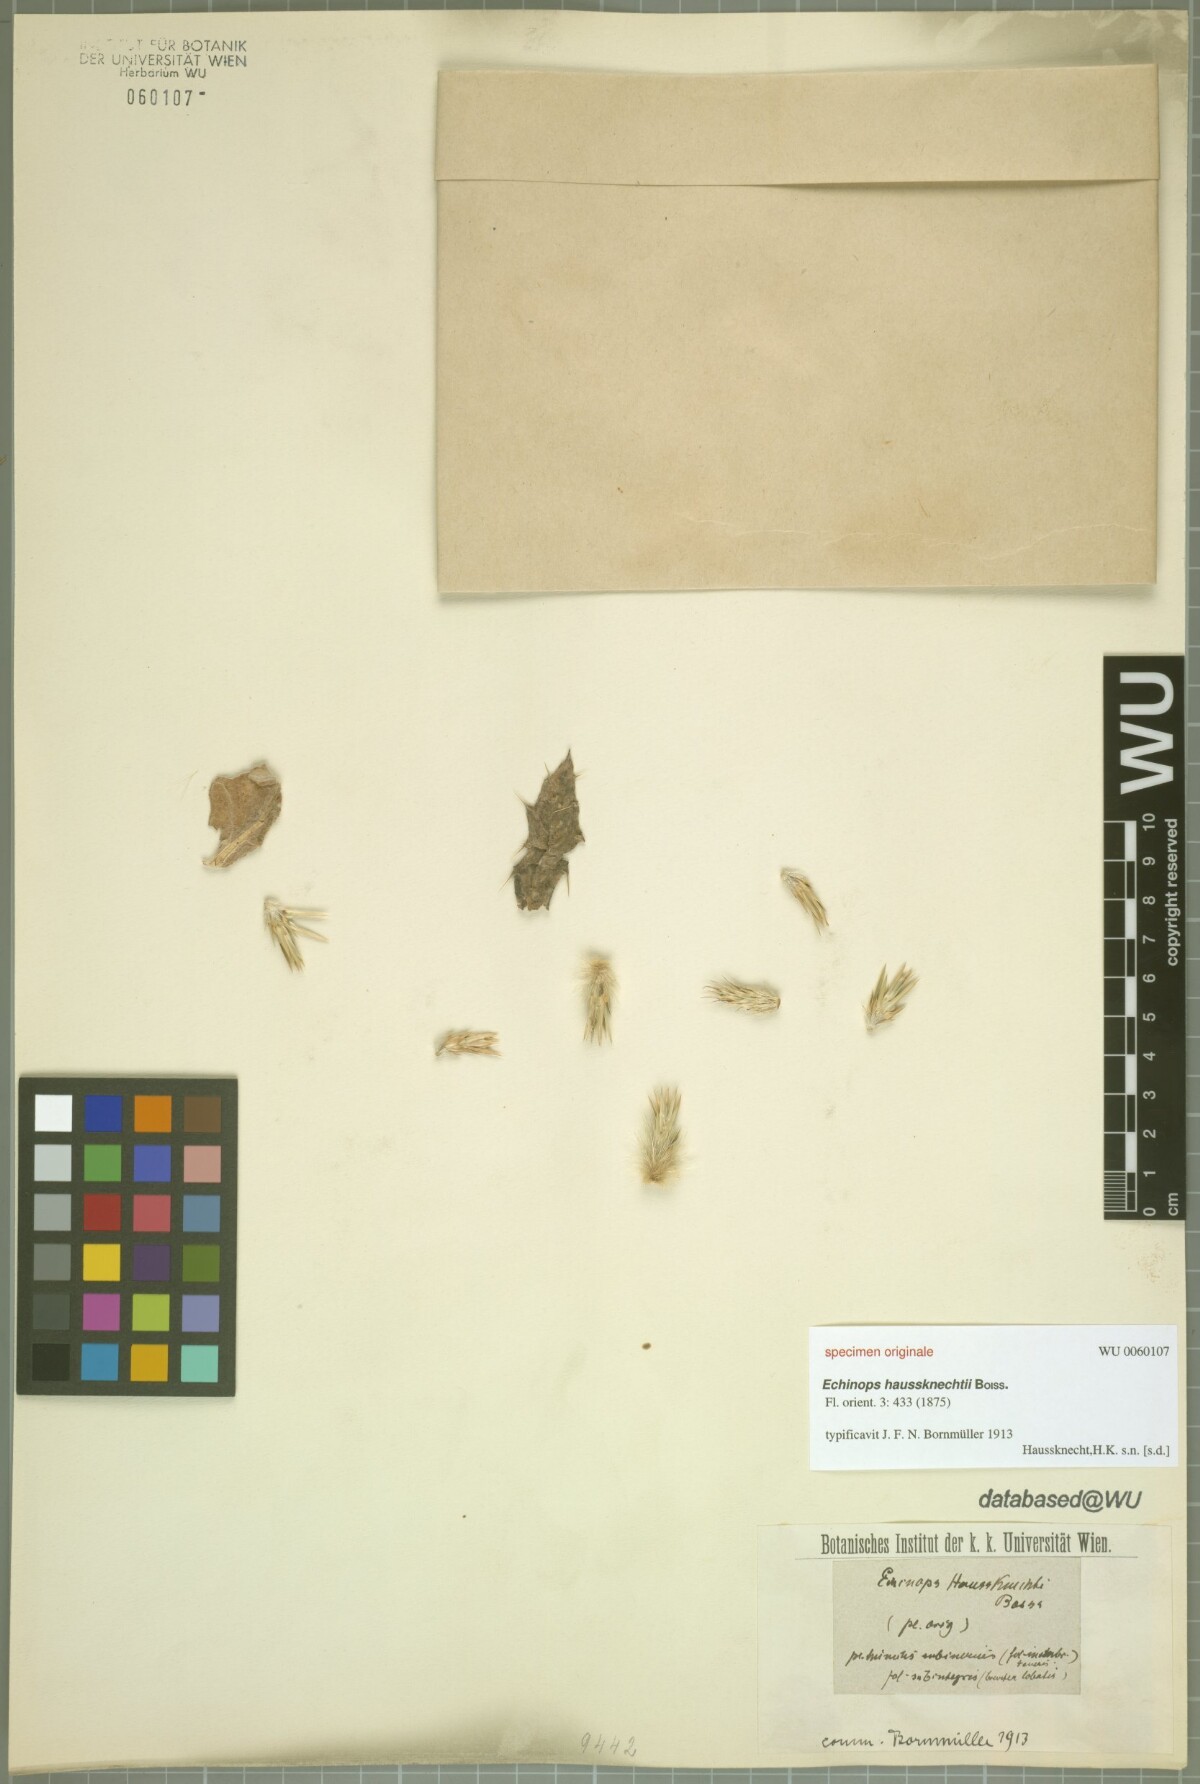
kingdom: Plantae
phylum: Tracheophyta
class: Magnoliopsida
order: Asterales
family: Asteraceae
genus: Echinops
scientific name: Echinops haussknechtii
